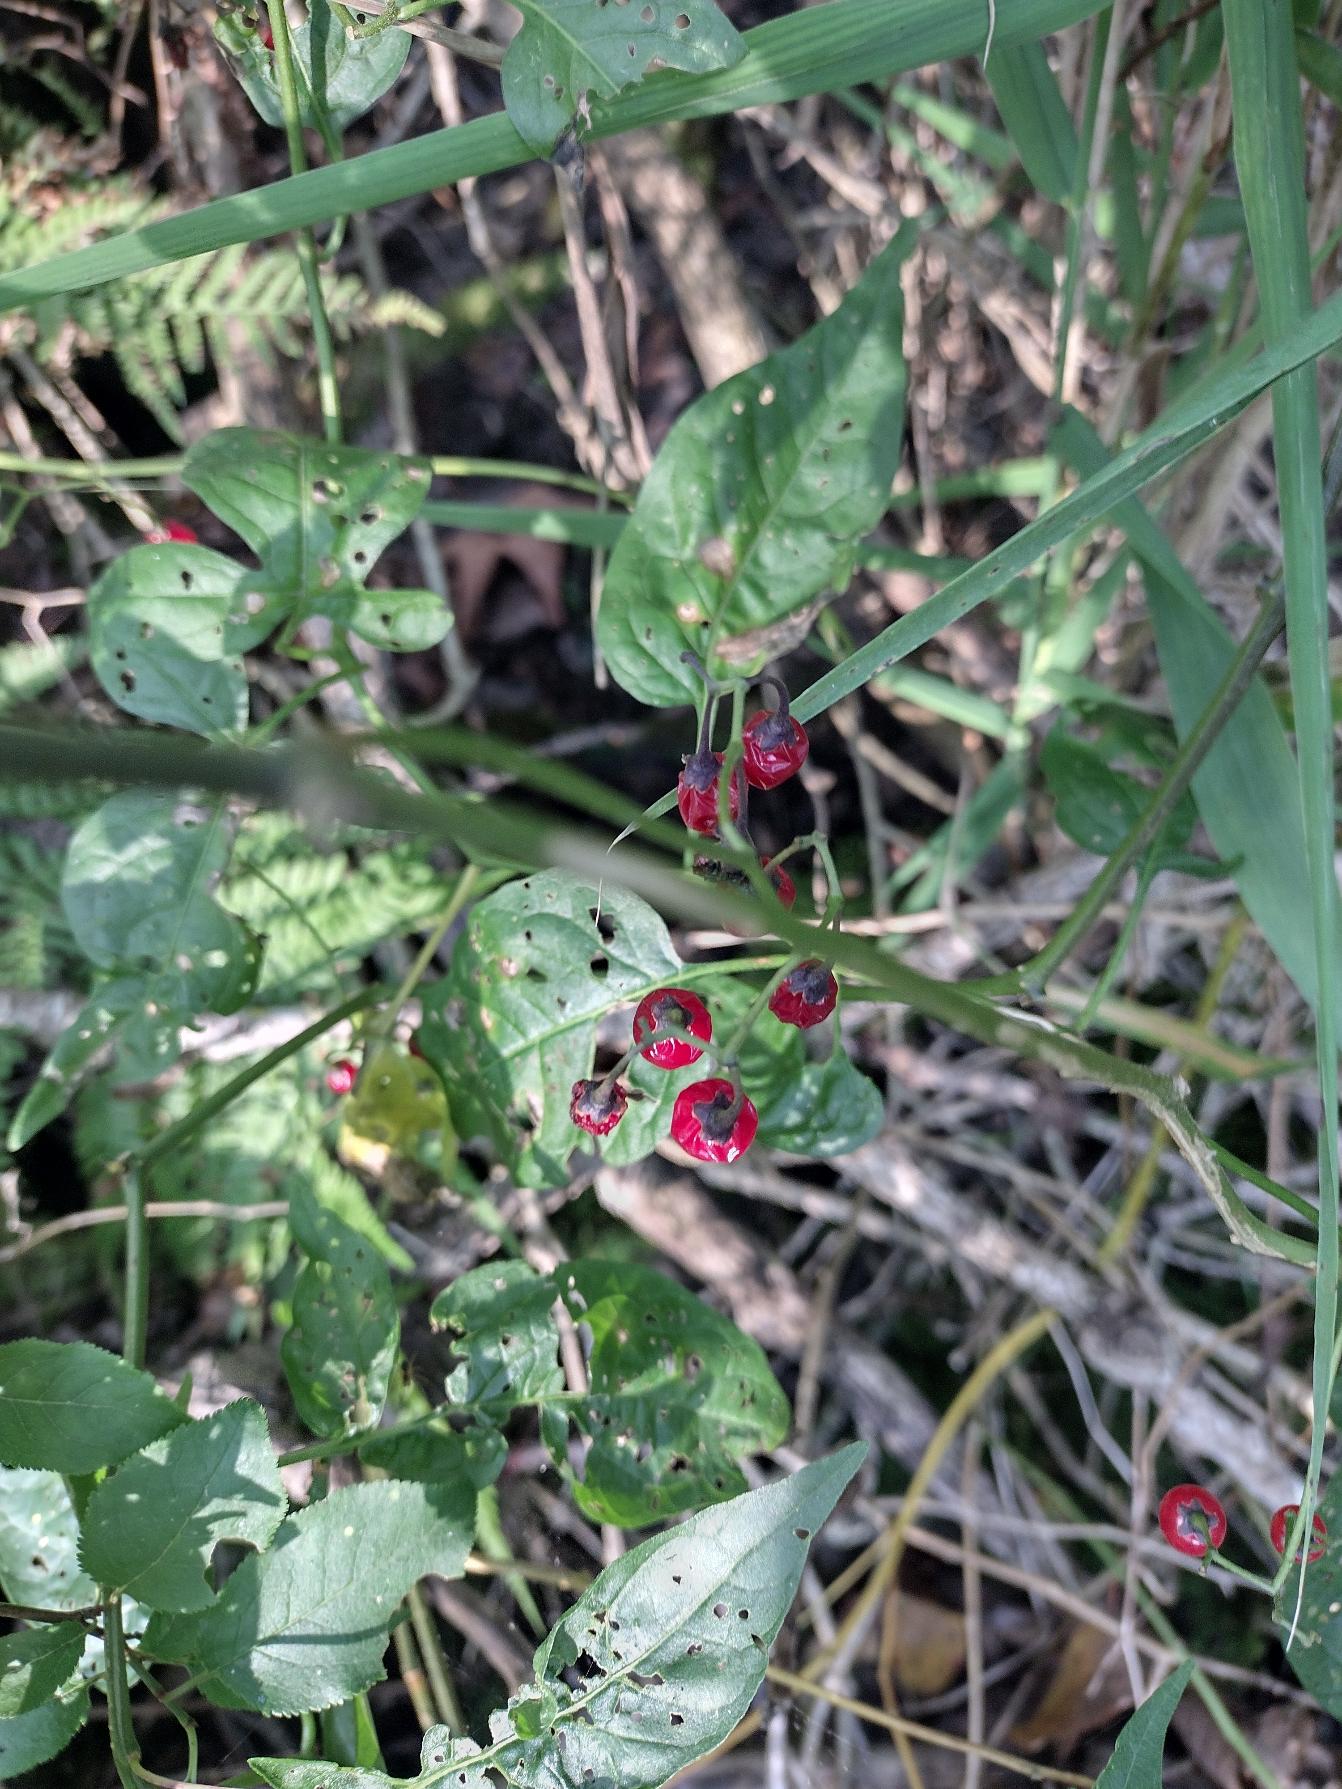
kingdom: Plantae
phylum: Tracheophyta
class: Magnoliopsida
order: Solanales
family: Solanaceae
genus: Solanum
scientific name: Solanum dulcamara
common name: Bittersød natskygge
